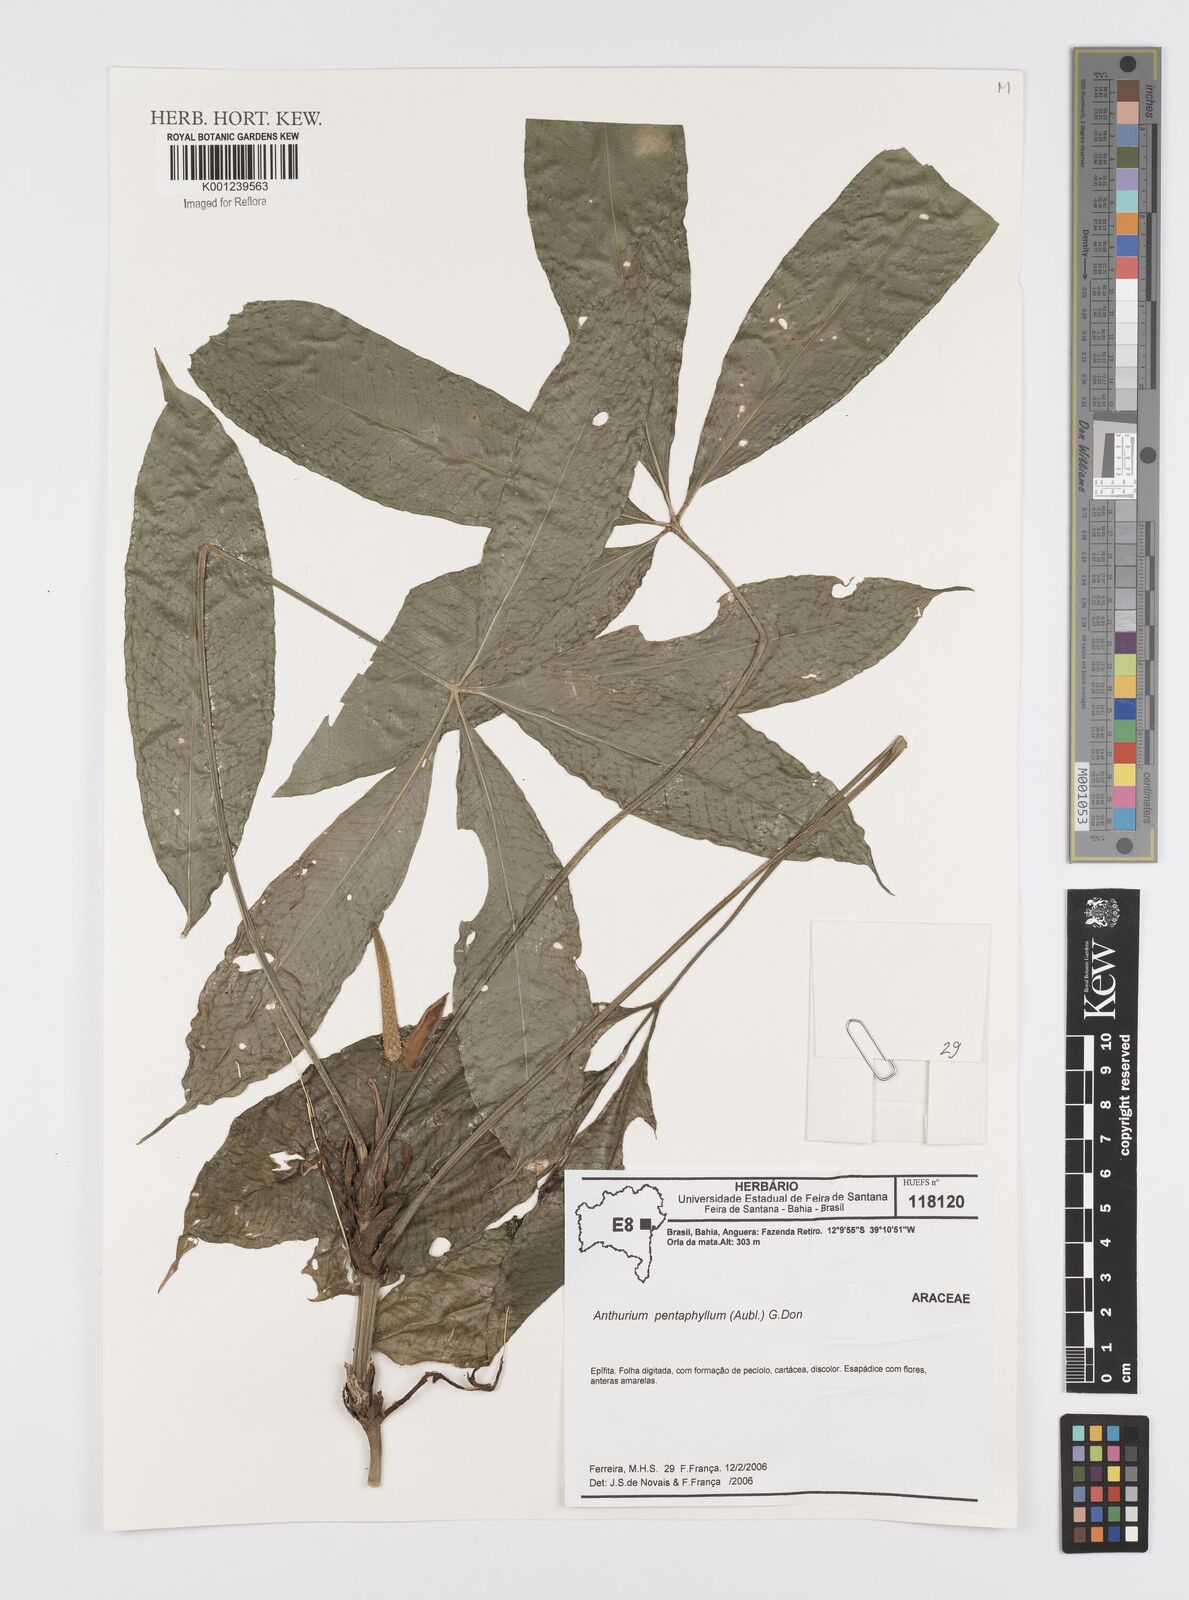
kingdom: Plantae
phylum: Tracheophyta
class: Liliopsida
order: Alismatales
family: Araceae
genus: Anthurium
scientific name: Anthurium pentaphyllum
